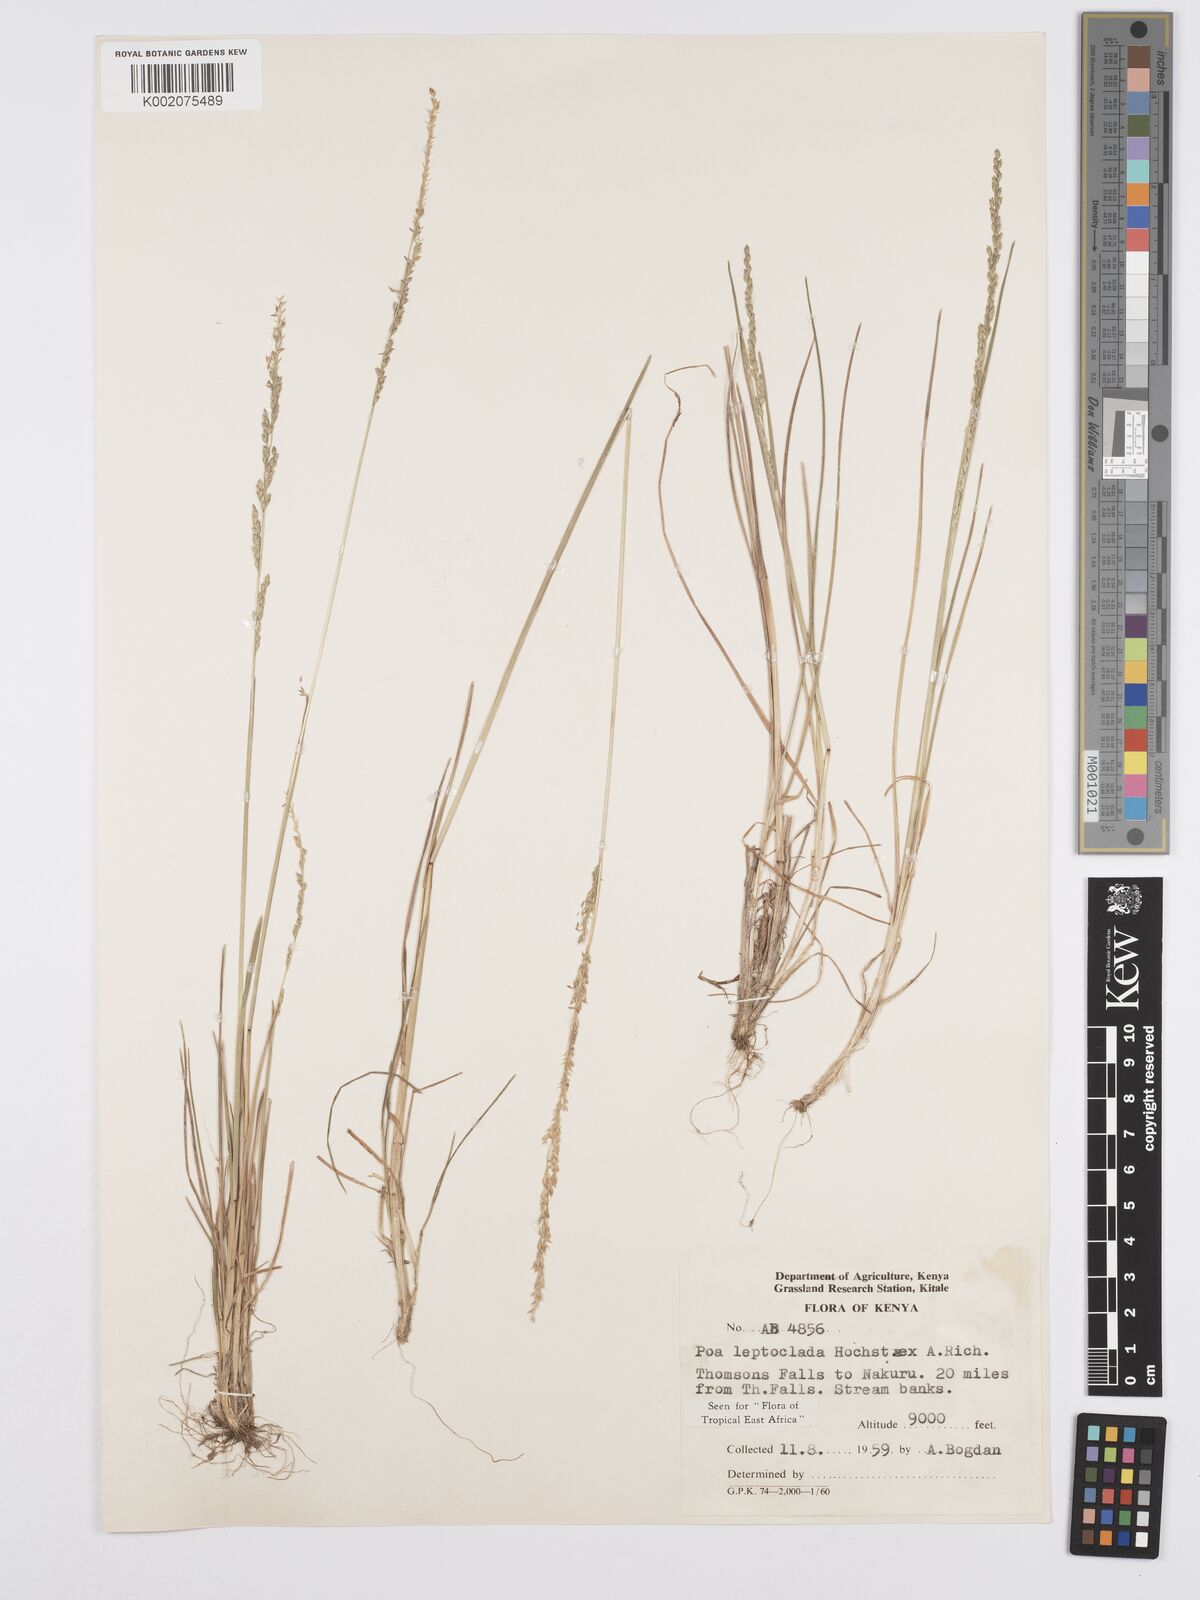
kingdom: Plantae
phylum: Tracheophyta
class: Liliopsida
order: Poales
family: Poaceae
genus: Poa
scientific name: Poa leptoclada
